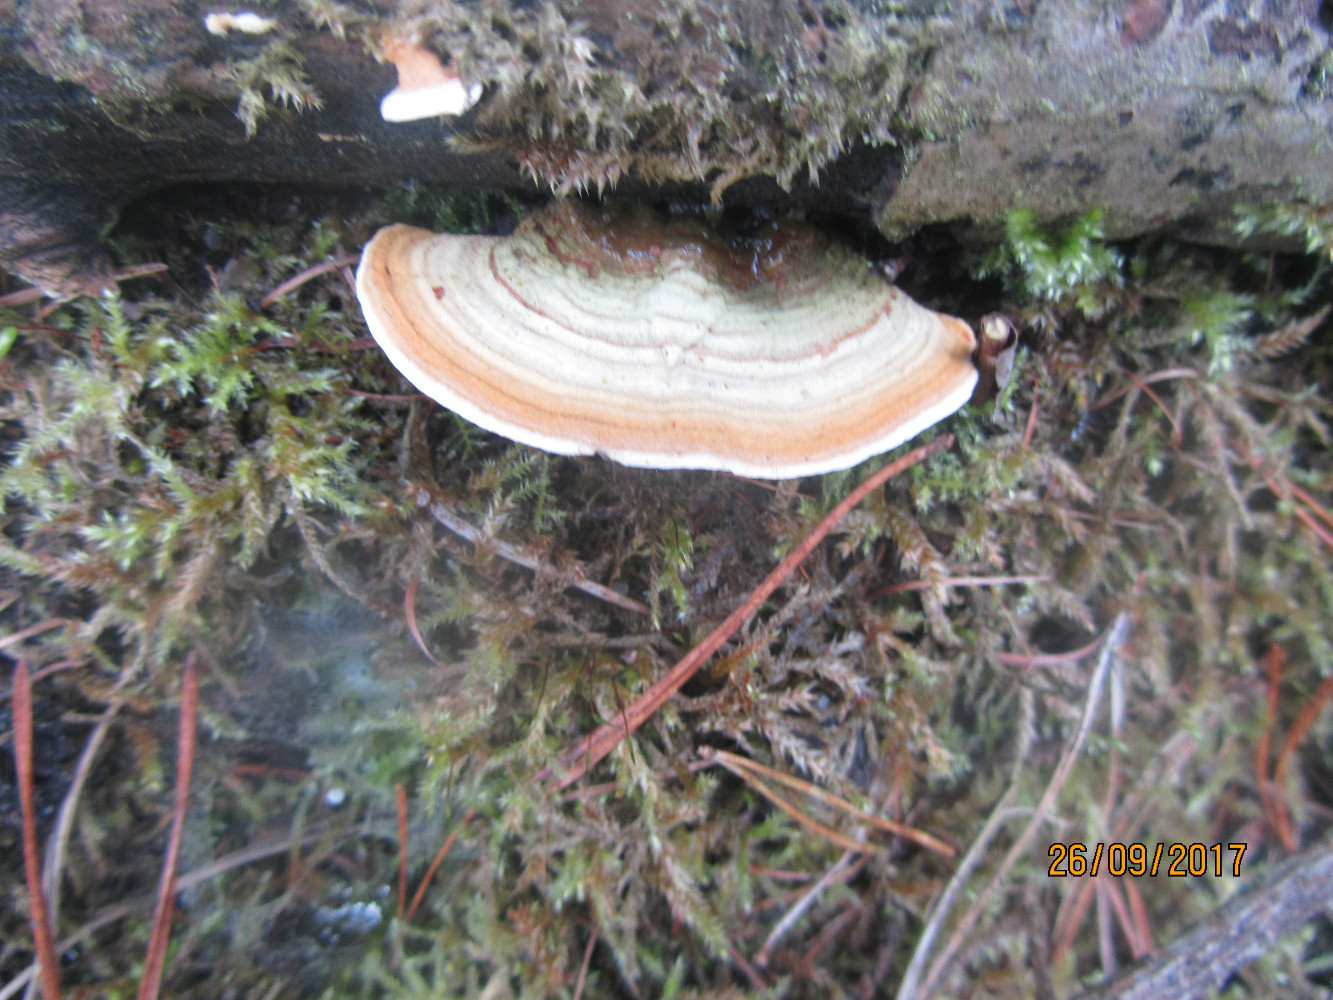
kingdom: Fungi
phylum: Basidiomycota
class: Agaricomycetes
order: Russulales
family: Stereaceae
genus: Stereum
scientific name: Stereum subtomentosum
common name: smuk lædersvamp
